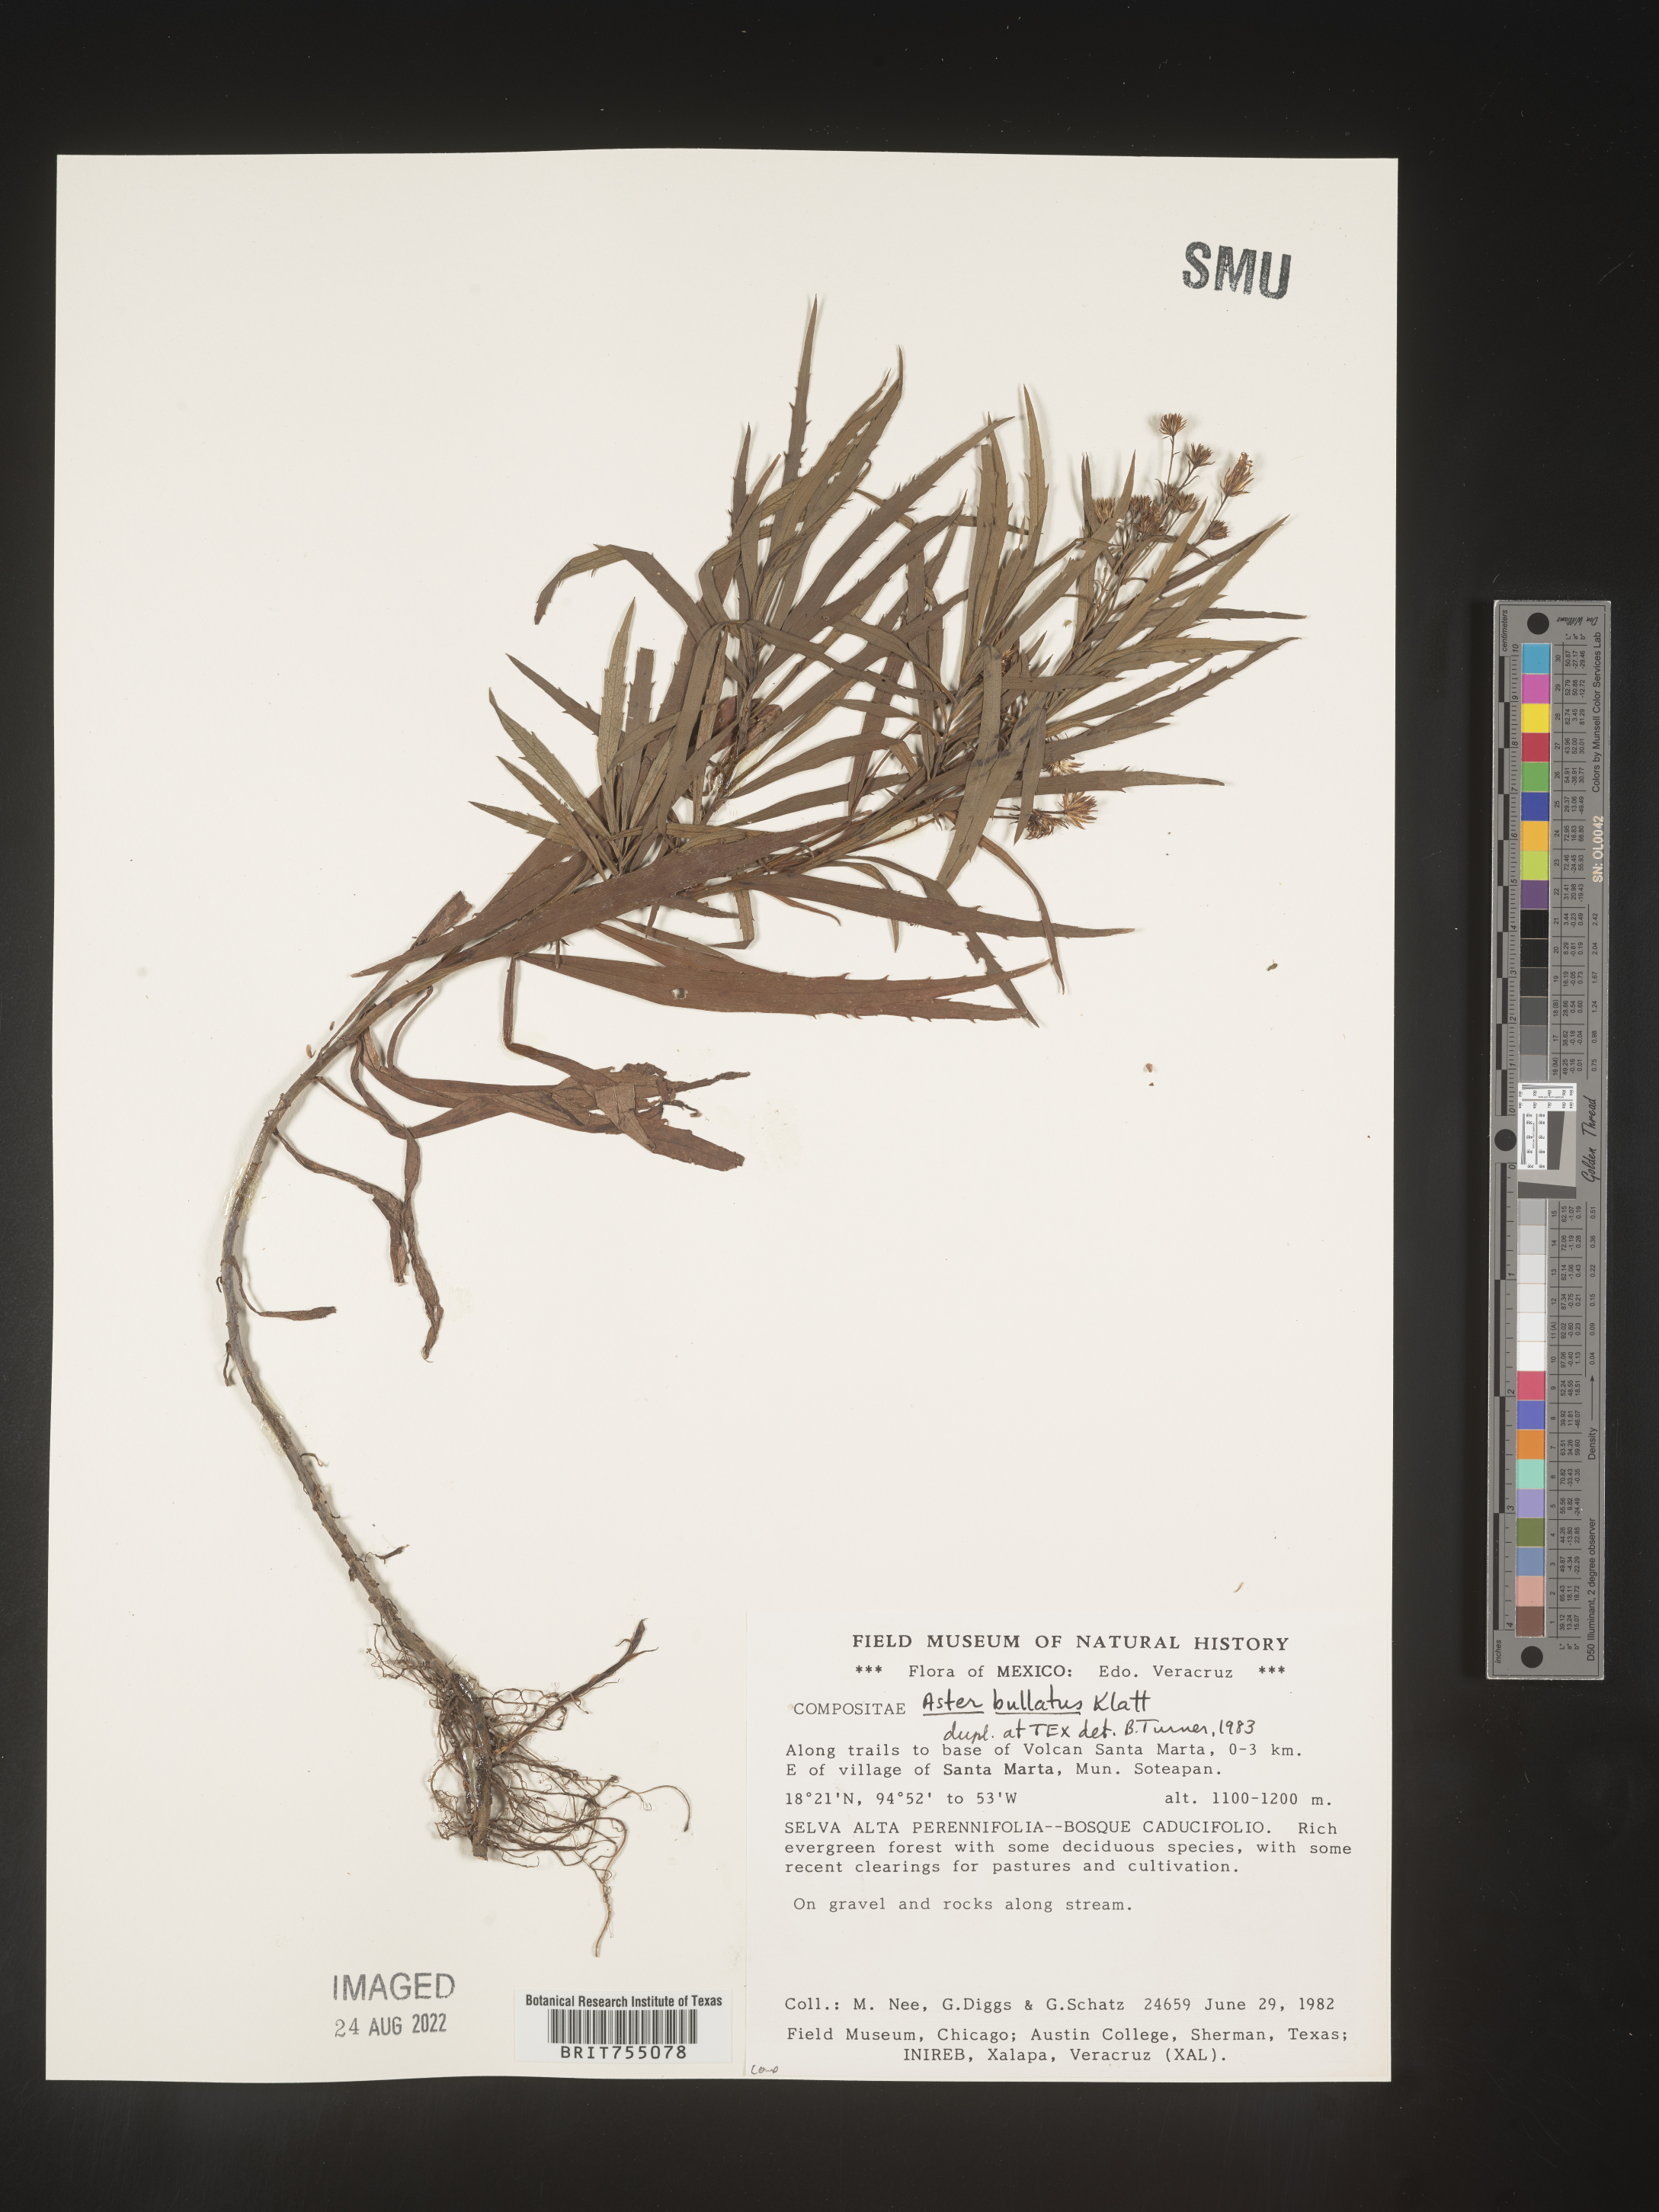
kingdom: Plantae
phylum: Tracheophyta
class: Magnoliopsida
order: Asterales
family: Asteraceae
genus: Symphyotrichum
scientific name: Symphyotrichum bullatum
